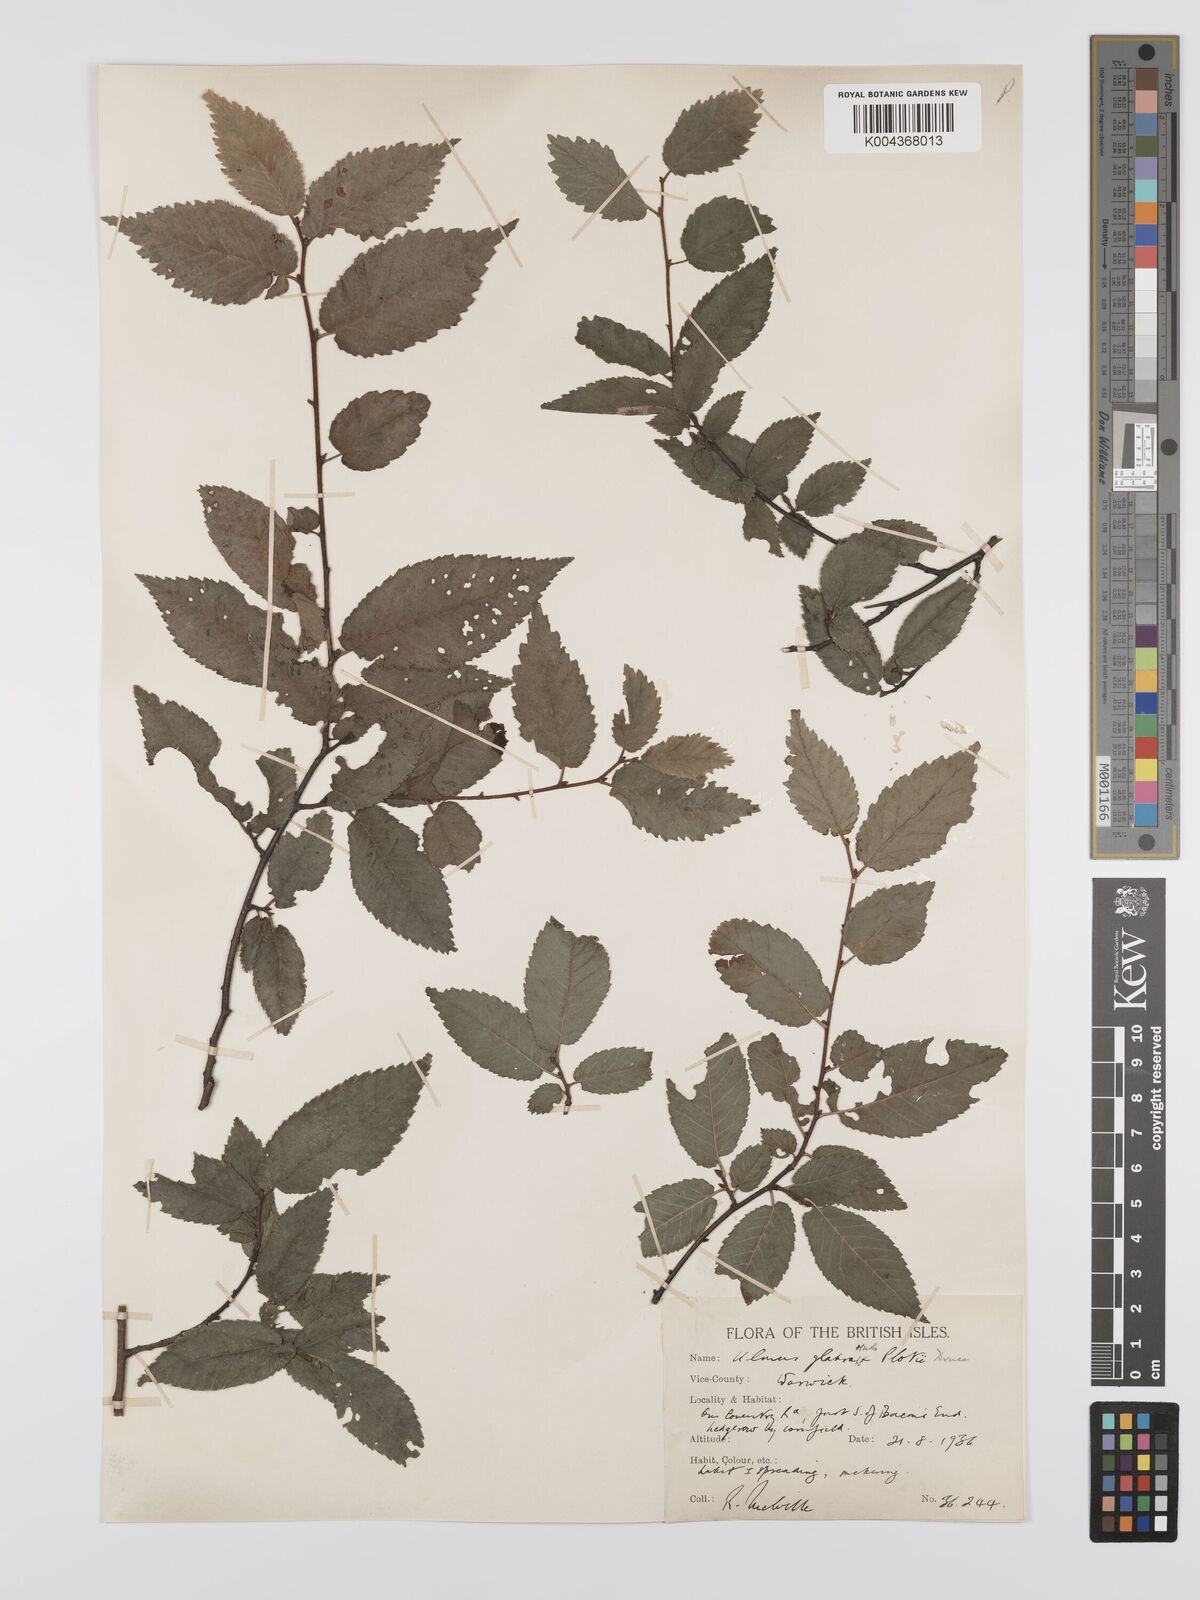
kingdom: Plantae
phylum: Tracheophyta
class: Magnoliopsida
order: Rosales
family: Ulmaceae
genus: Ulmus
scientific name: Ulmus
